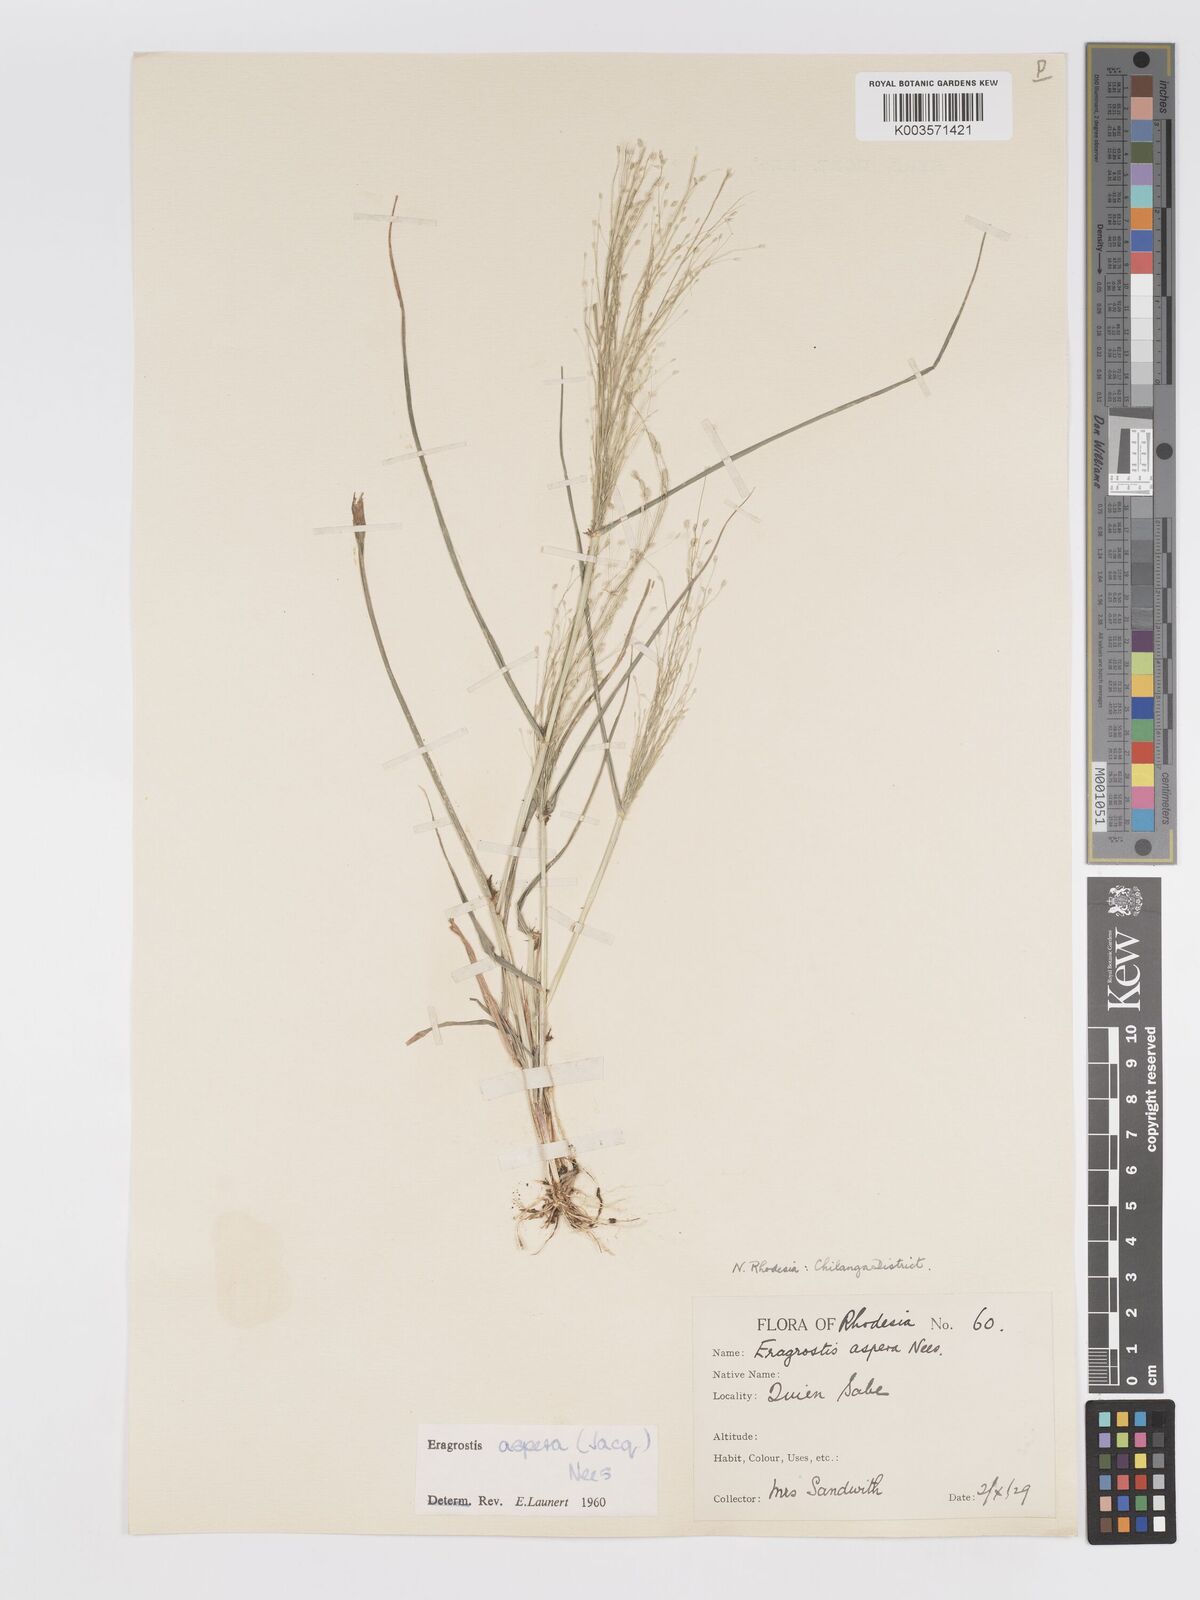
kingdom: Plantae
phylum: Tracheophyta
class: Liliopsida
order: Poales
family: Poaceae
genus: Eragrostis
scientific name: Eragrostis aspera
